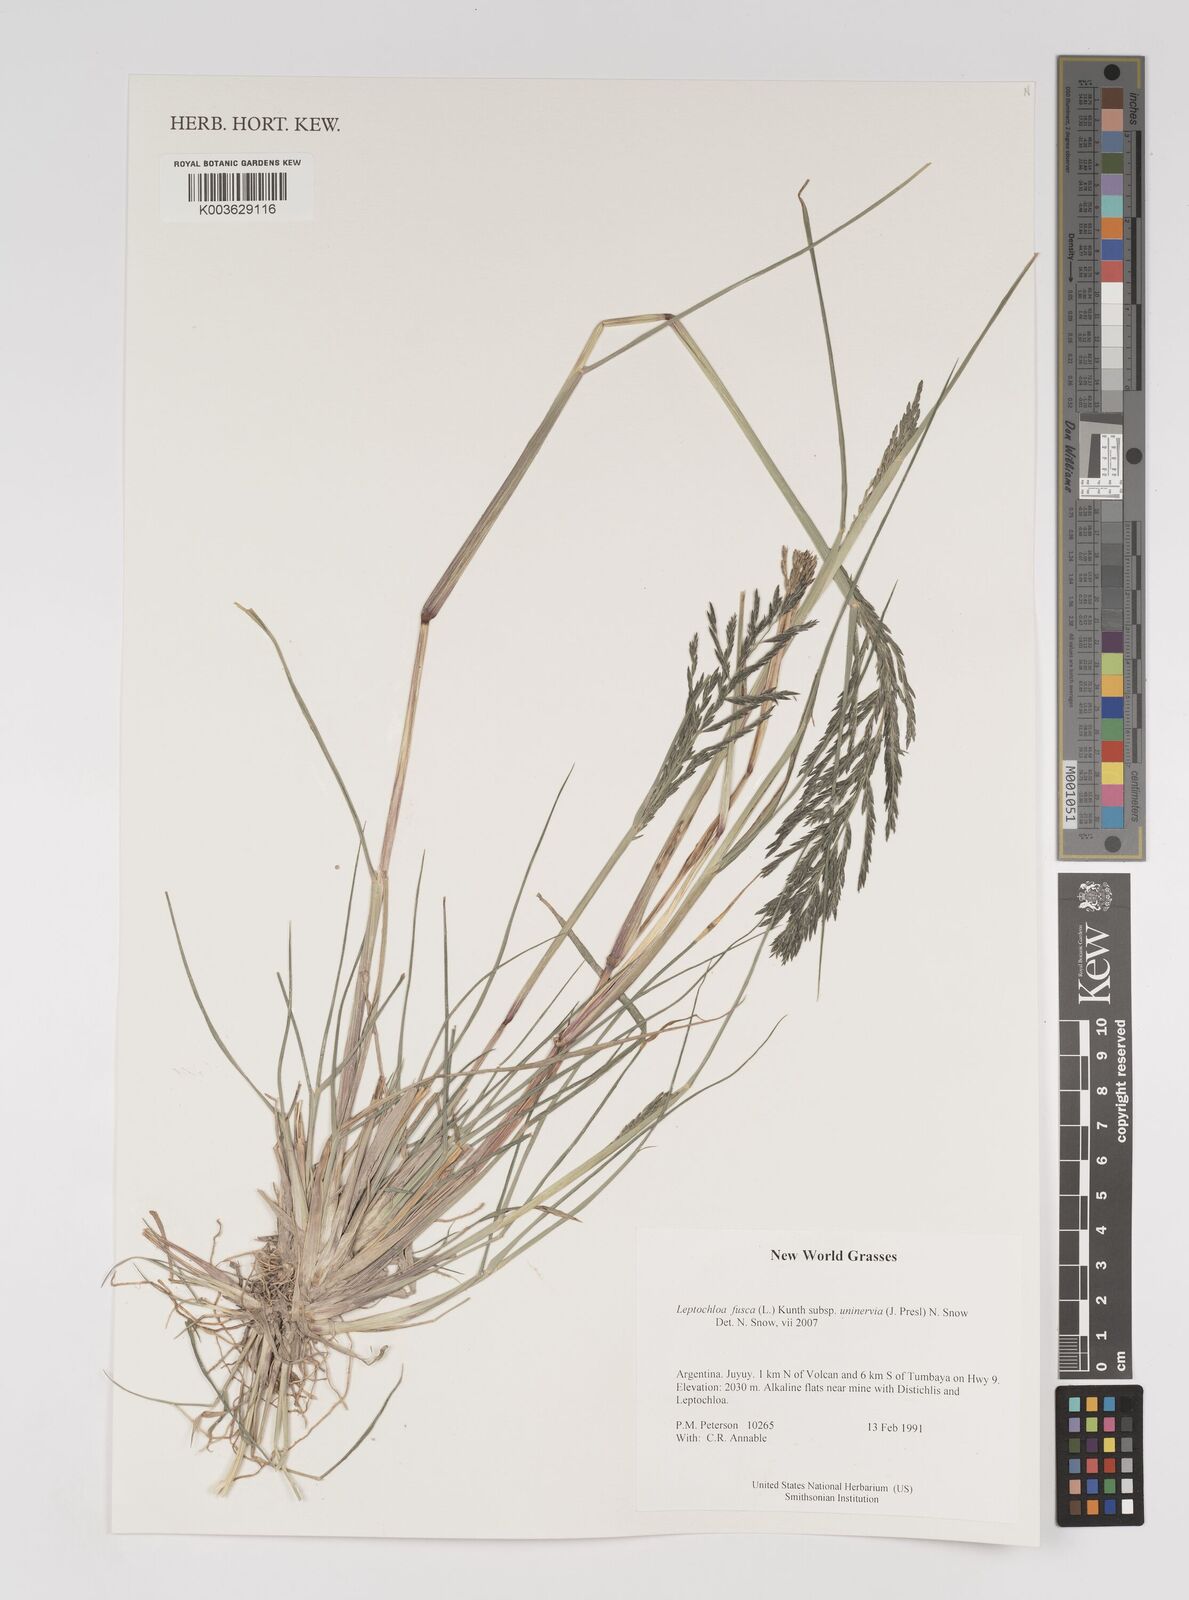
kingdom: Plantae
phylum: Tracheophyta
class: Liliopsida
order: Poales
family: Poaceae
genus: Diplachne
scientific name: Diplachne fusca
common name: Brown beetle grass
